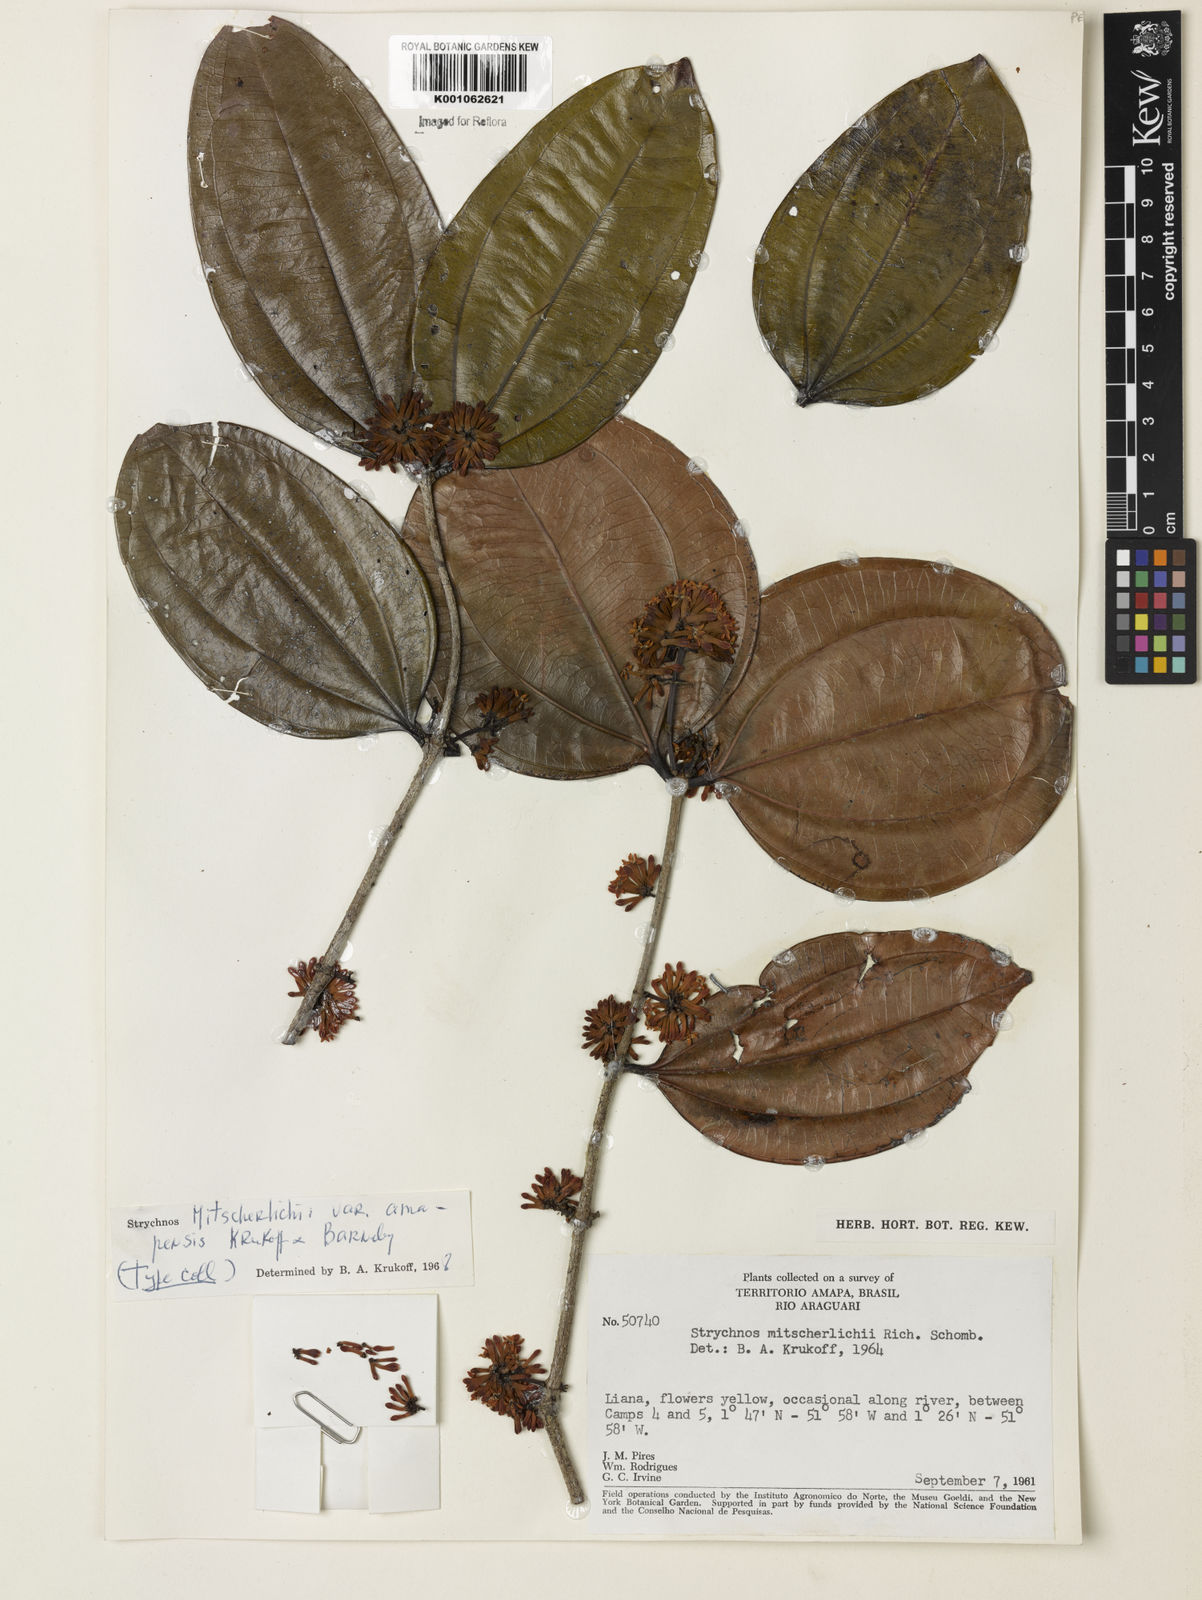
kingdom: Plantae
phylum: Tracheophyta
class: Magnoliopsida
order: Gentianales
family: Loganiaceae
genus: Strychnos
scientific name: Strychnos mitscherlichii
